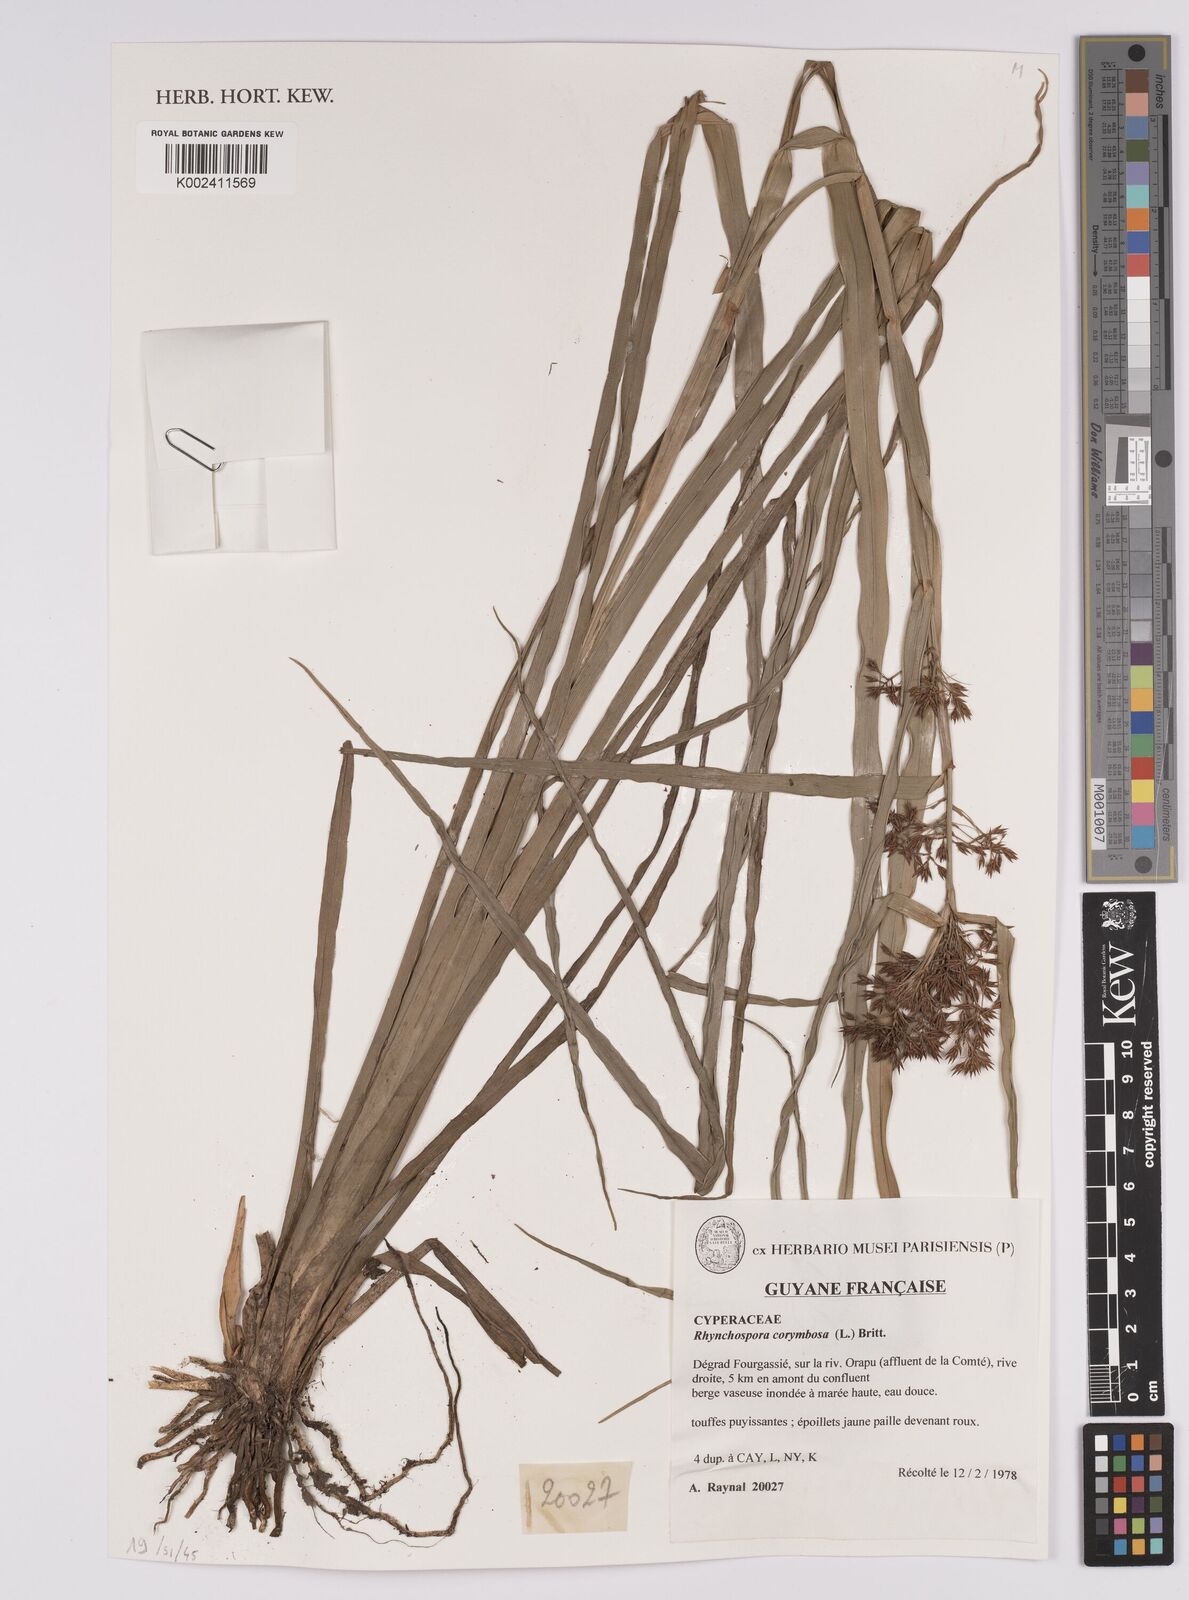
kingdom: Plantae
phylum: Tracheophyta
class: Liliopsida
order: Poales
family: Cyperaceae
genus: Rhynchospora
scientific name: Rhynchospora corymbosa
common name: Golden beak sedge
